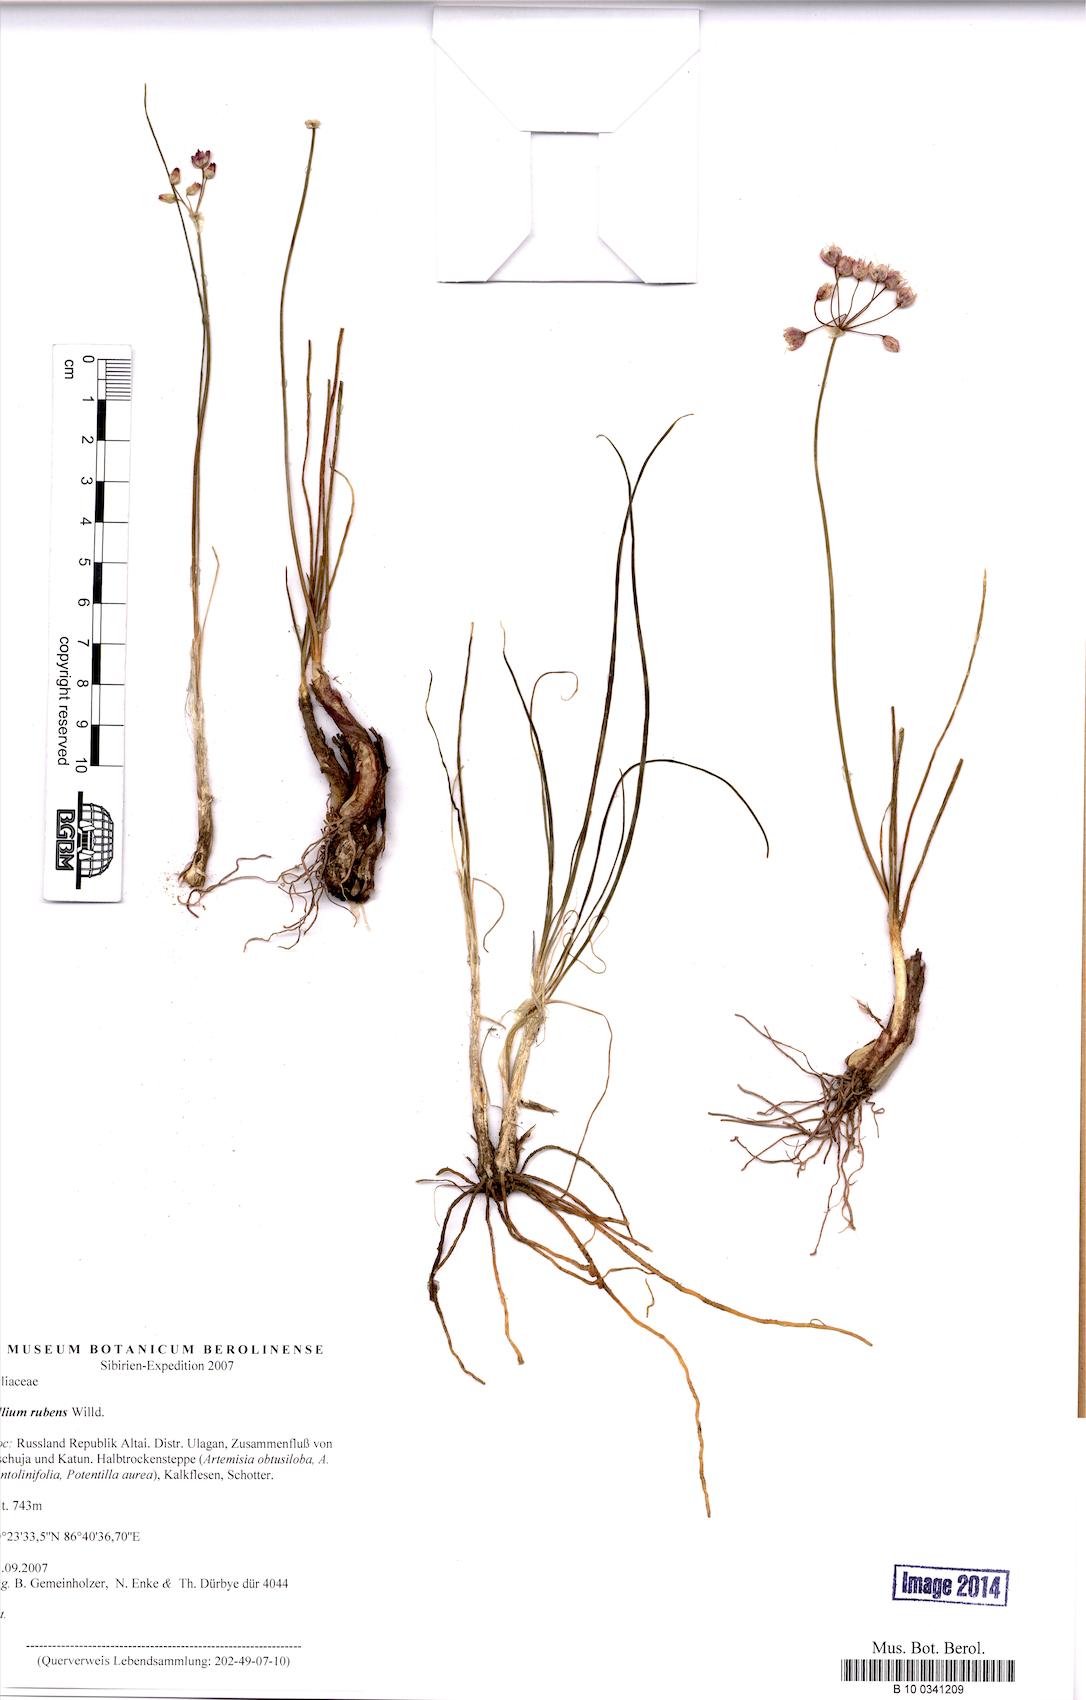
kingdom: Plantae
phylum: Tracheophyta
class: Liliopsida
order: Asparagales
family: Amaryllidaceae
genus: Allium
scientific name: Allium rubens
